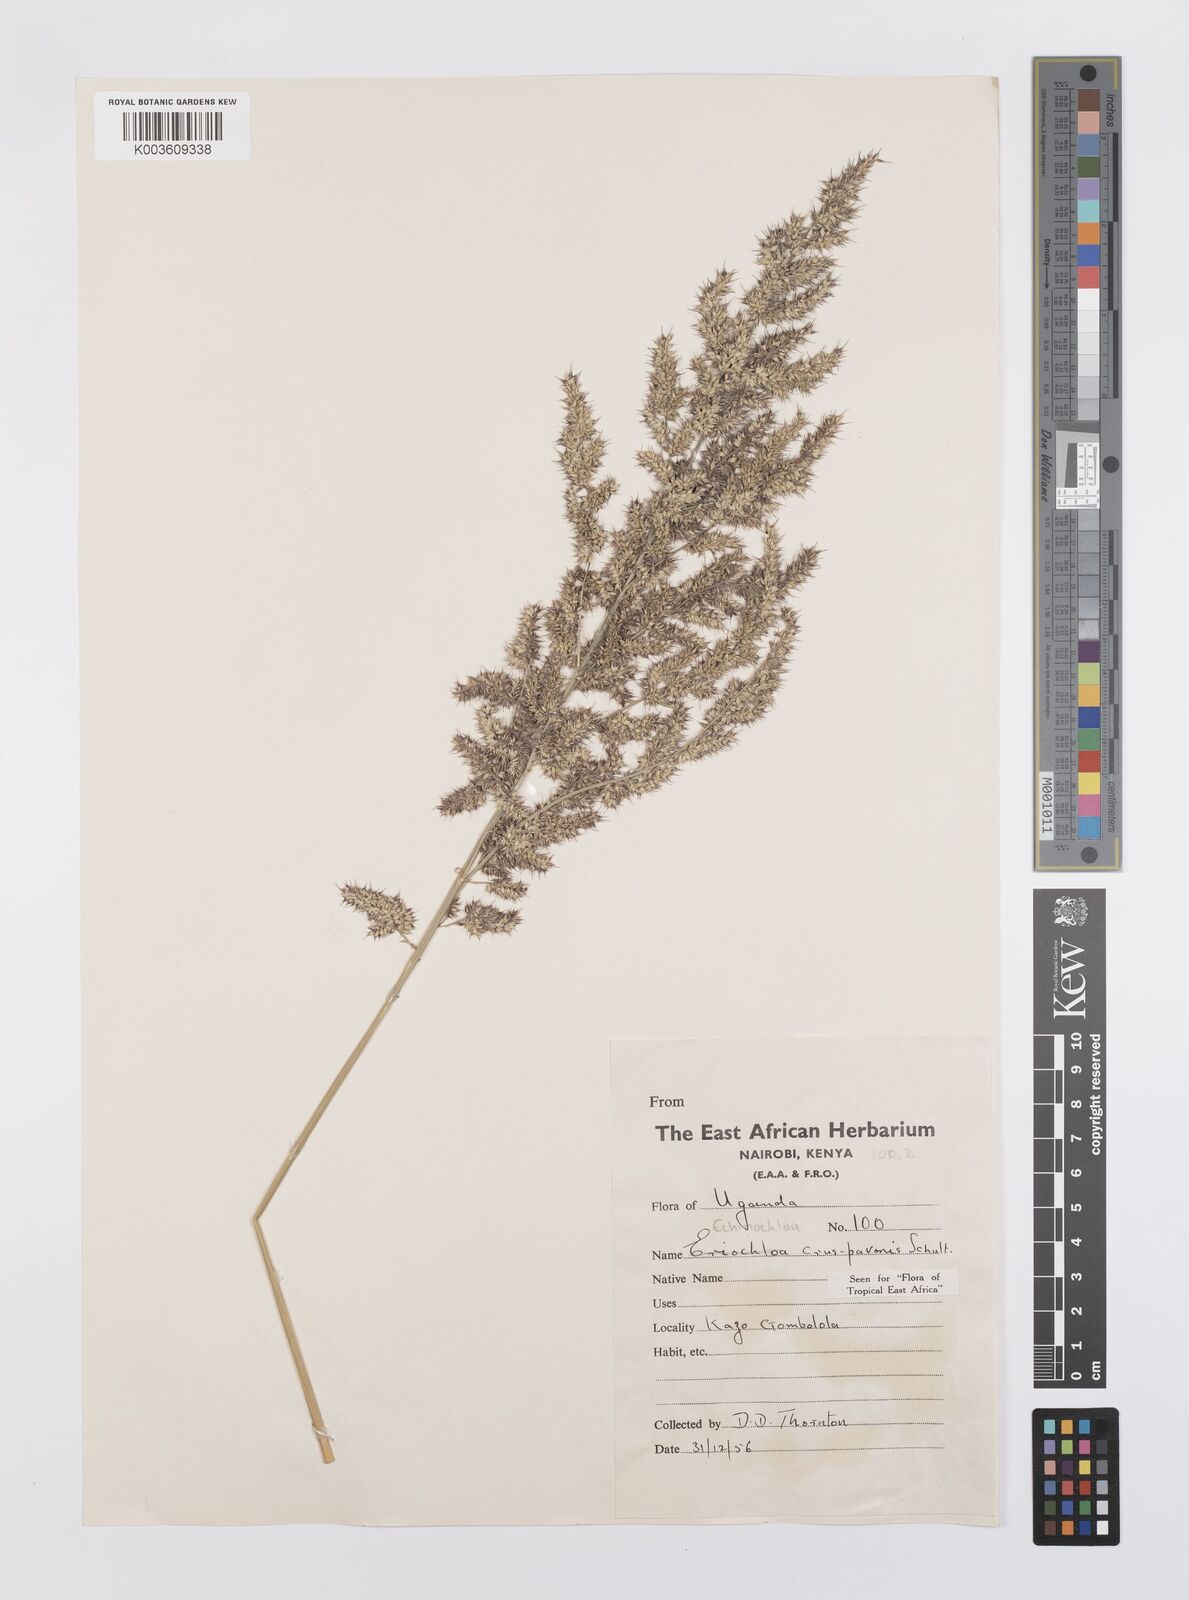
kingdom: Plantae
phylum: Tracheophyta
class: Liliopsida
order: Poales
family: Poaceae
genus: Echinochloa
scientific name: Echinochloa crus-pavonis
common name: Gulf cockspur grass
